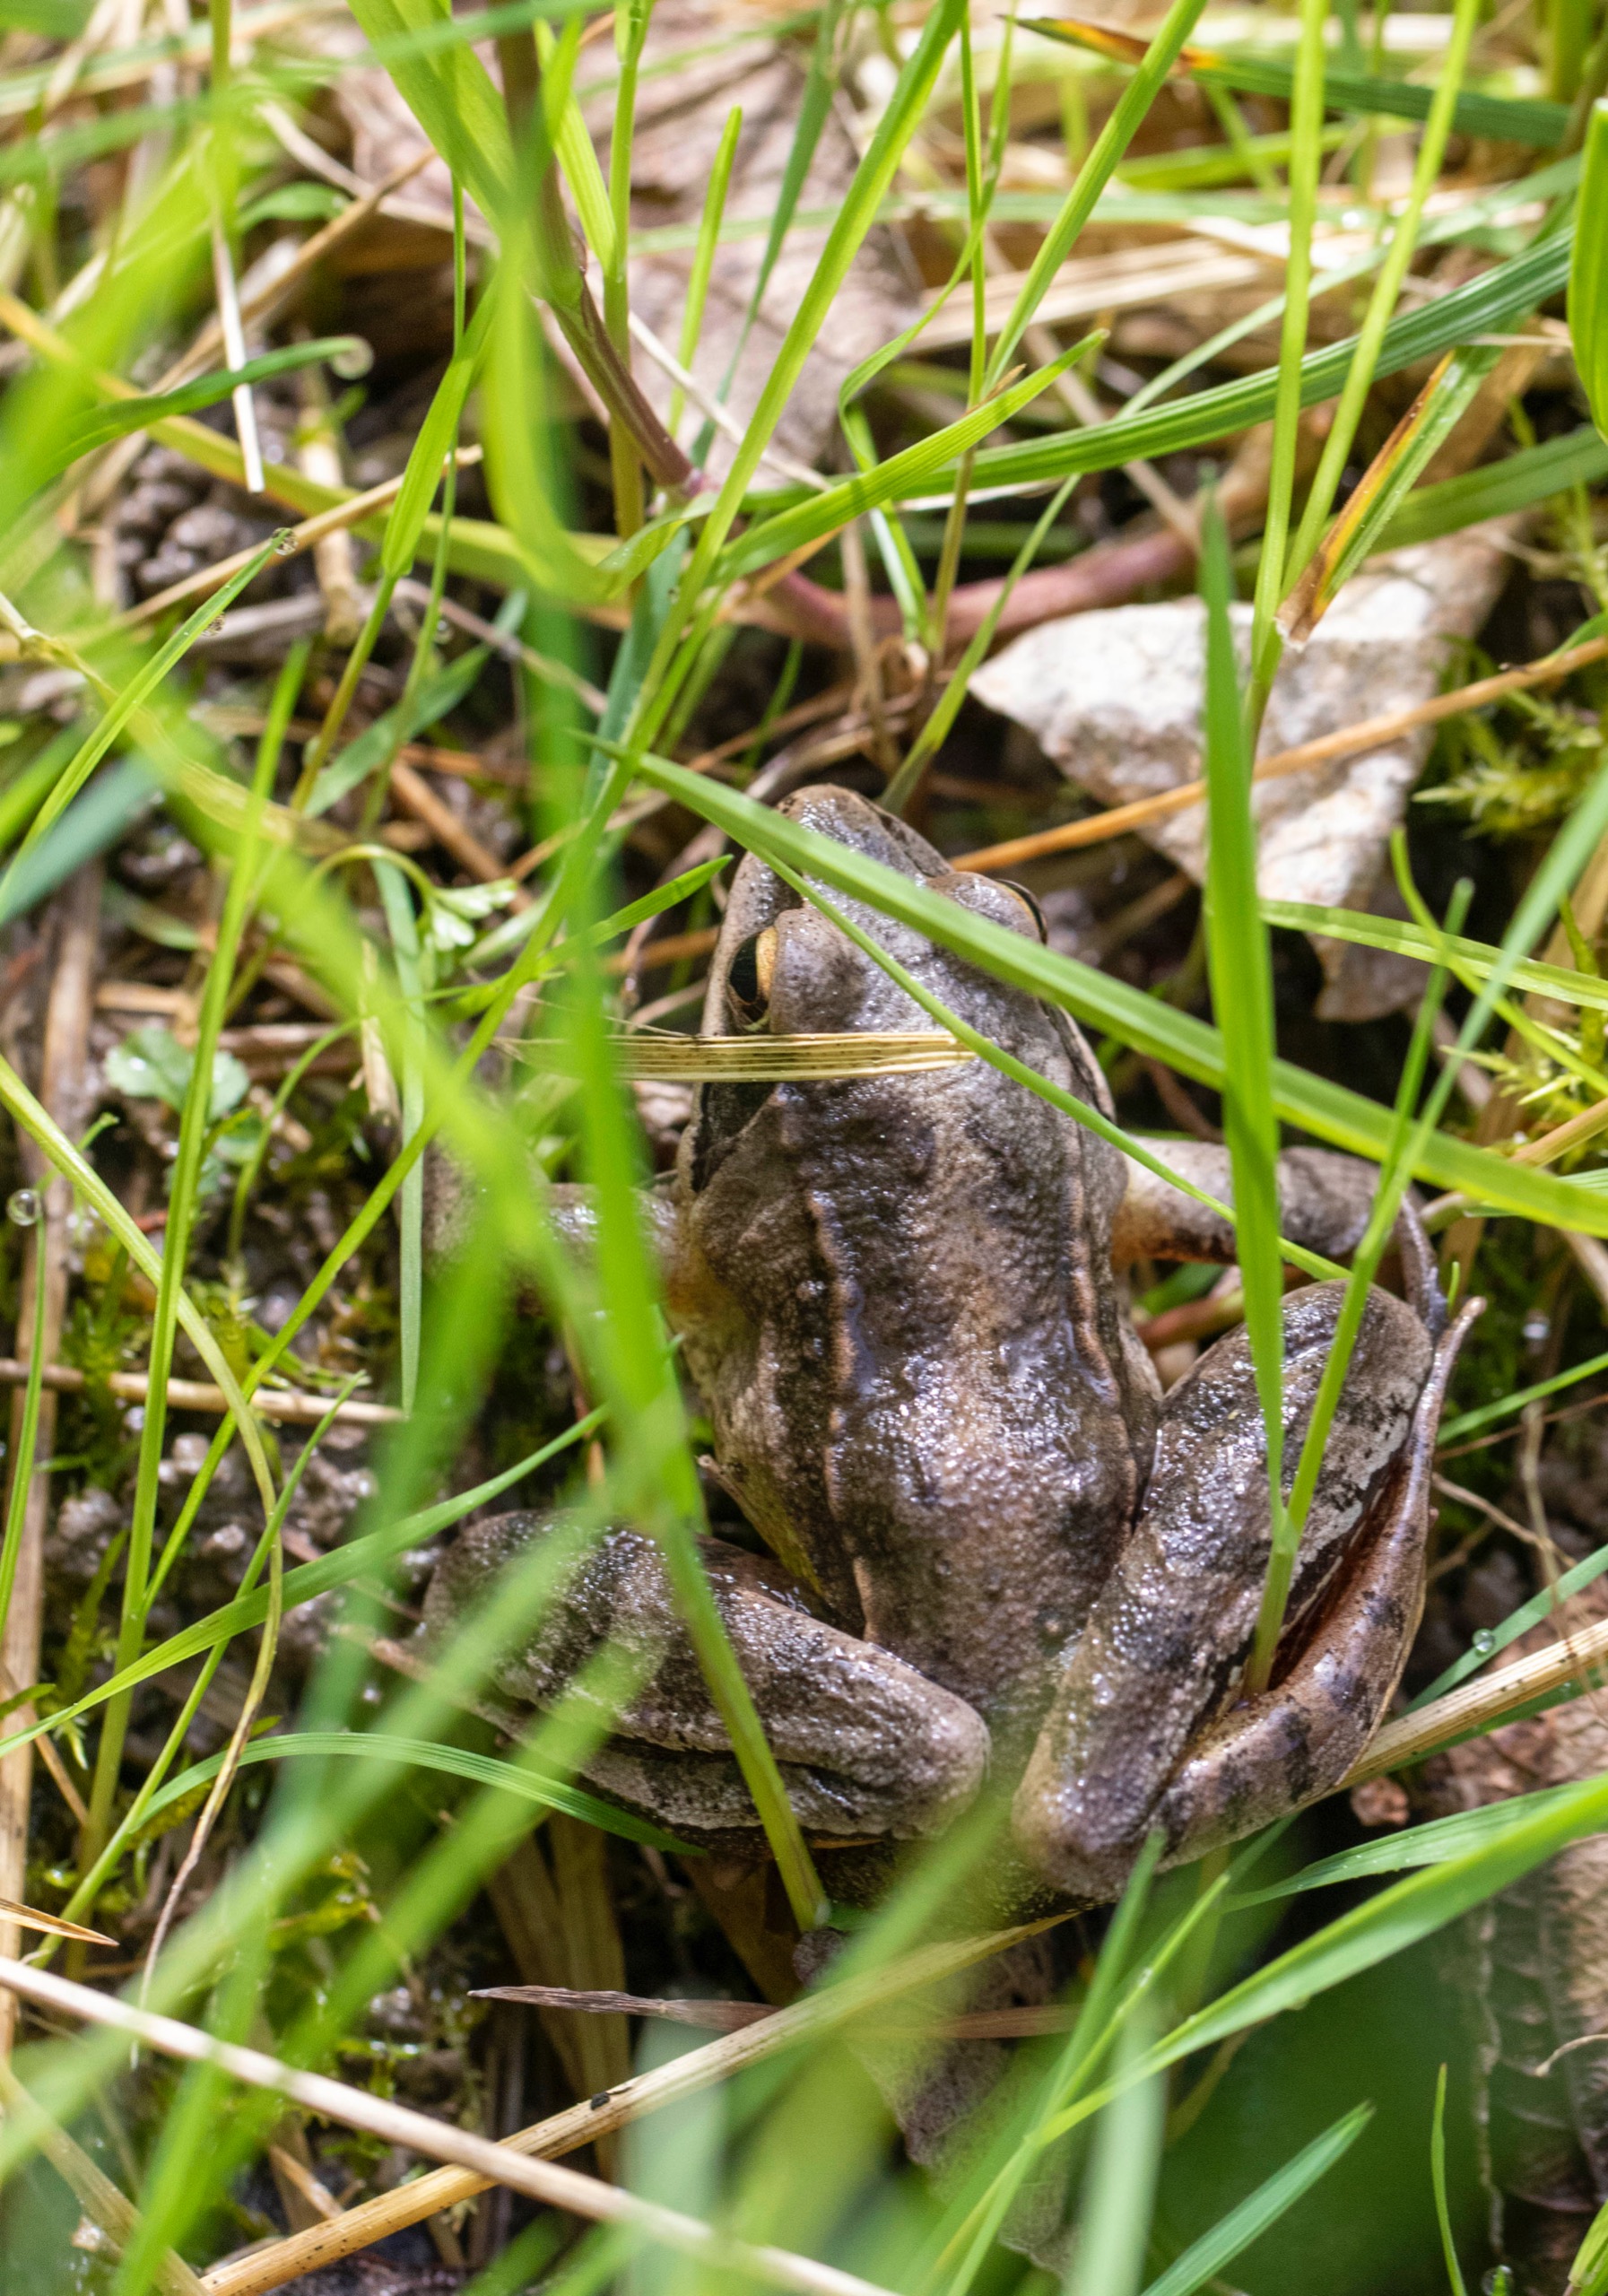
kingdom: Animalia
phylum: Chordata
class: Amphibia
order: Anura
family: Ranidae
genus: Rana
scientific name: Rana dalmatina
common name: Springfrø
